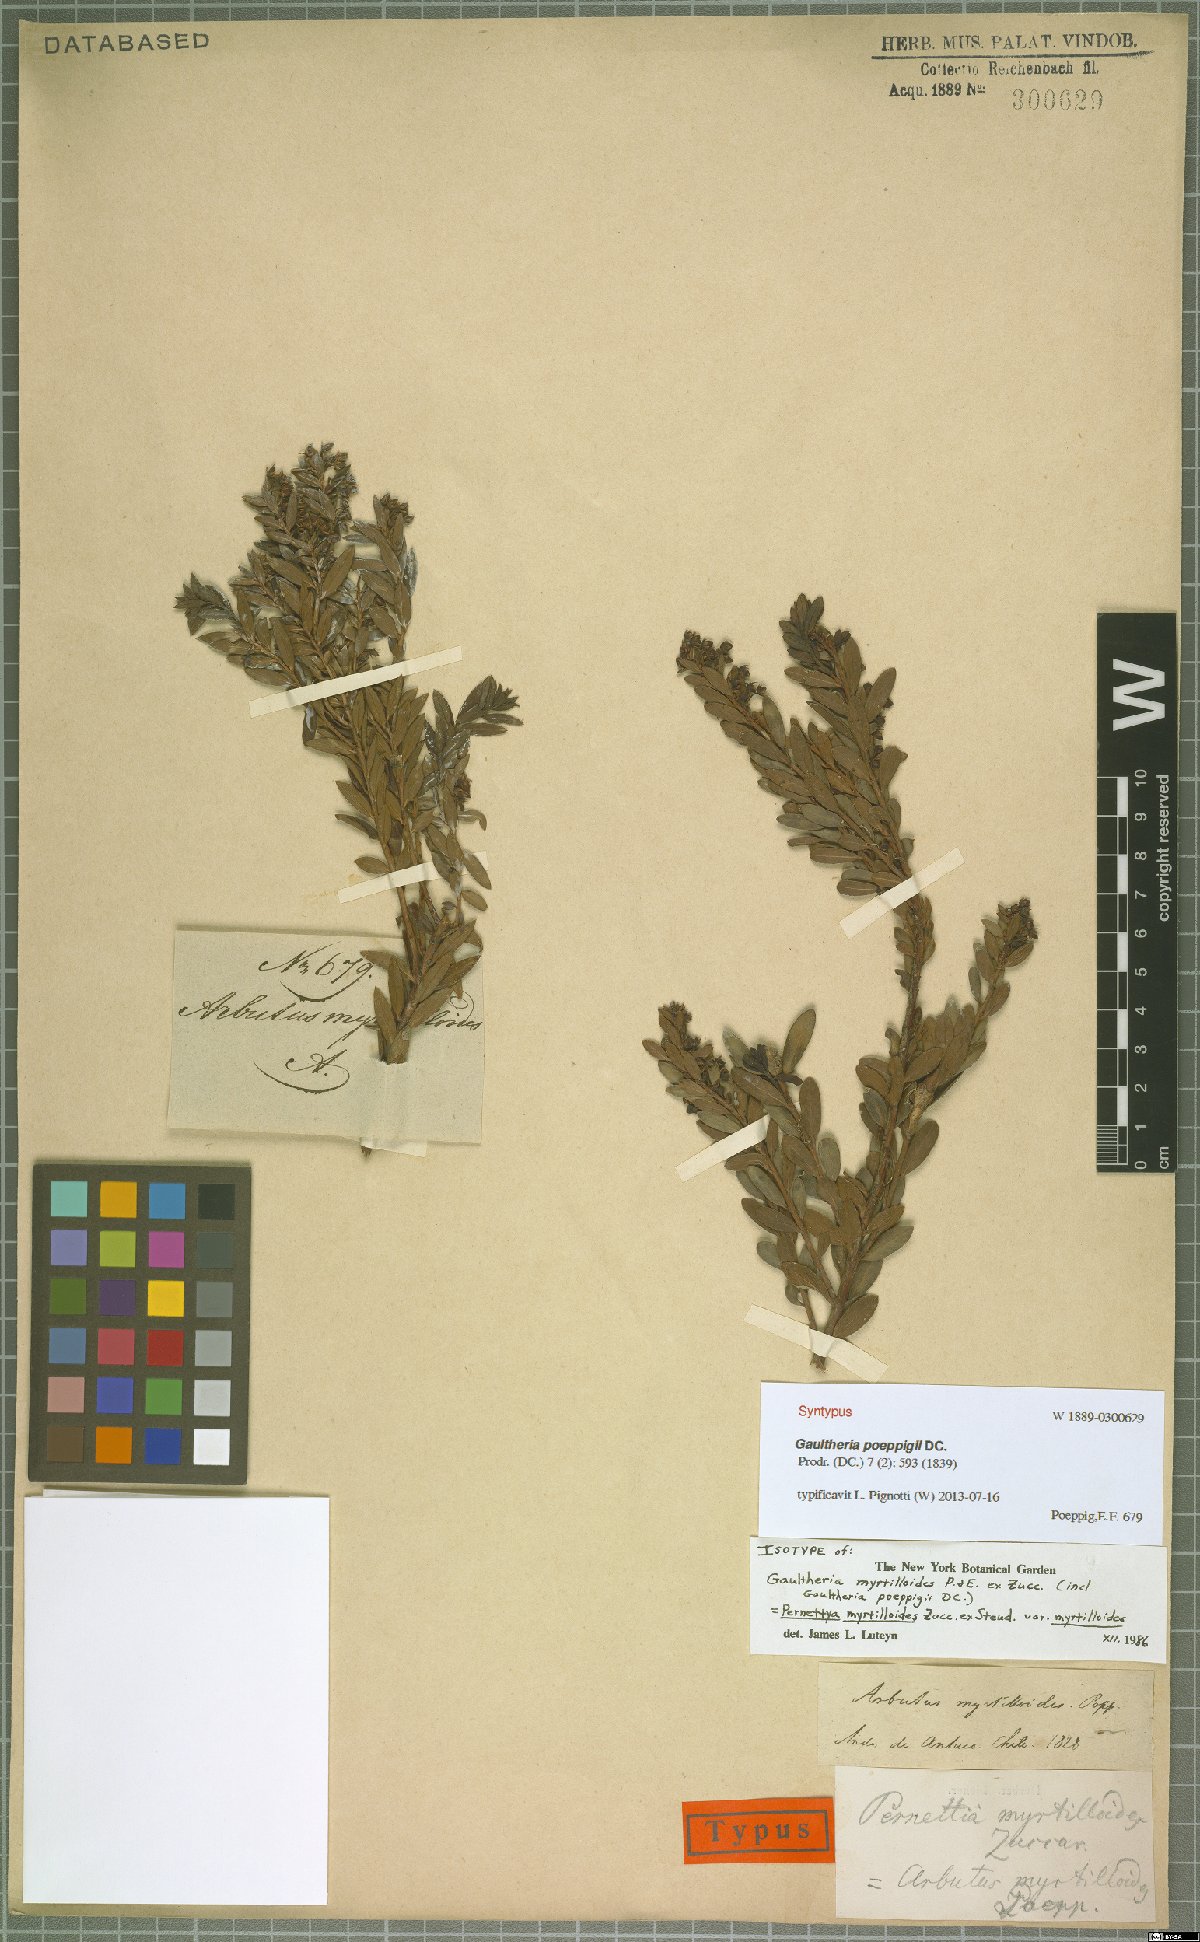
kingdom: Plantae
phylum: Tracheophyta
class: Magnoliopsida
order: Ericales
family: Ericaceae
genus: Gaultheria
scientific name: Gaultheria poeppigii
